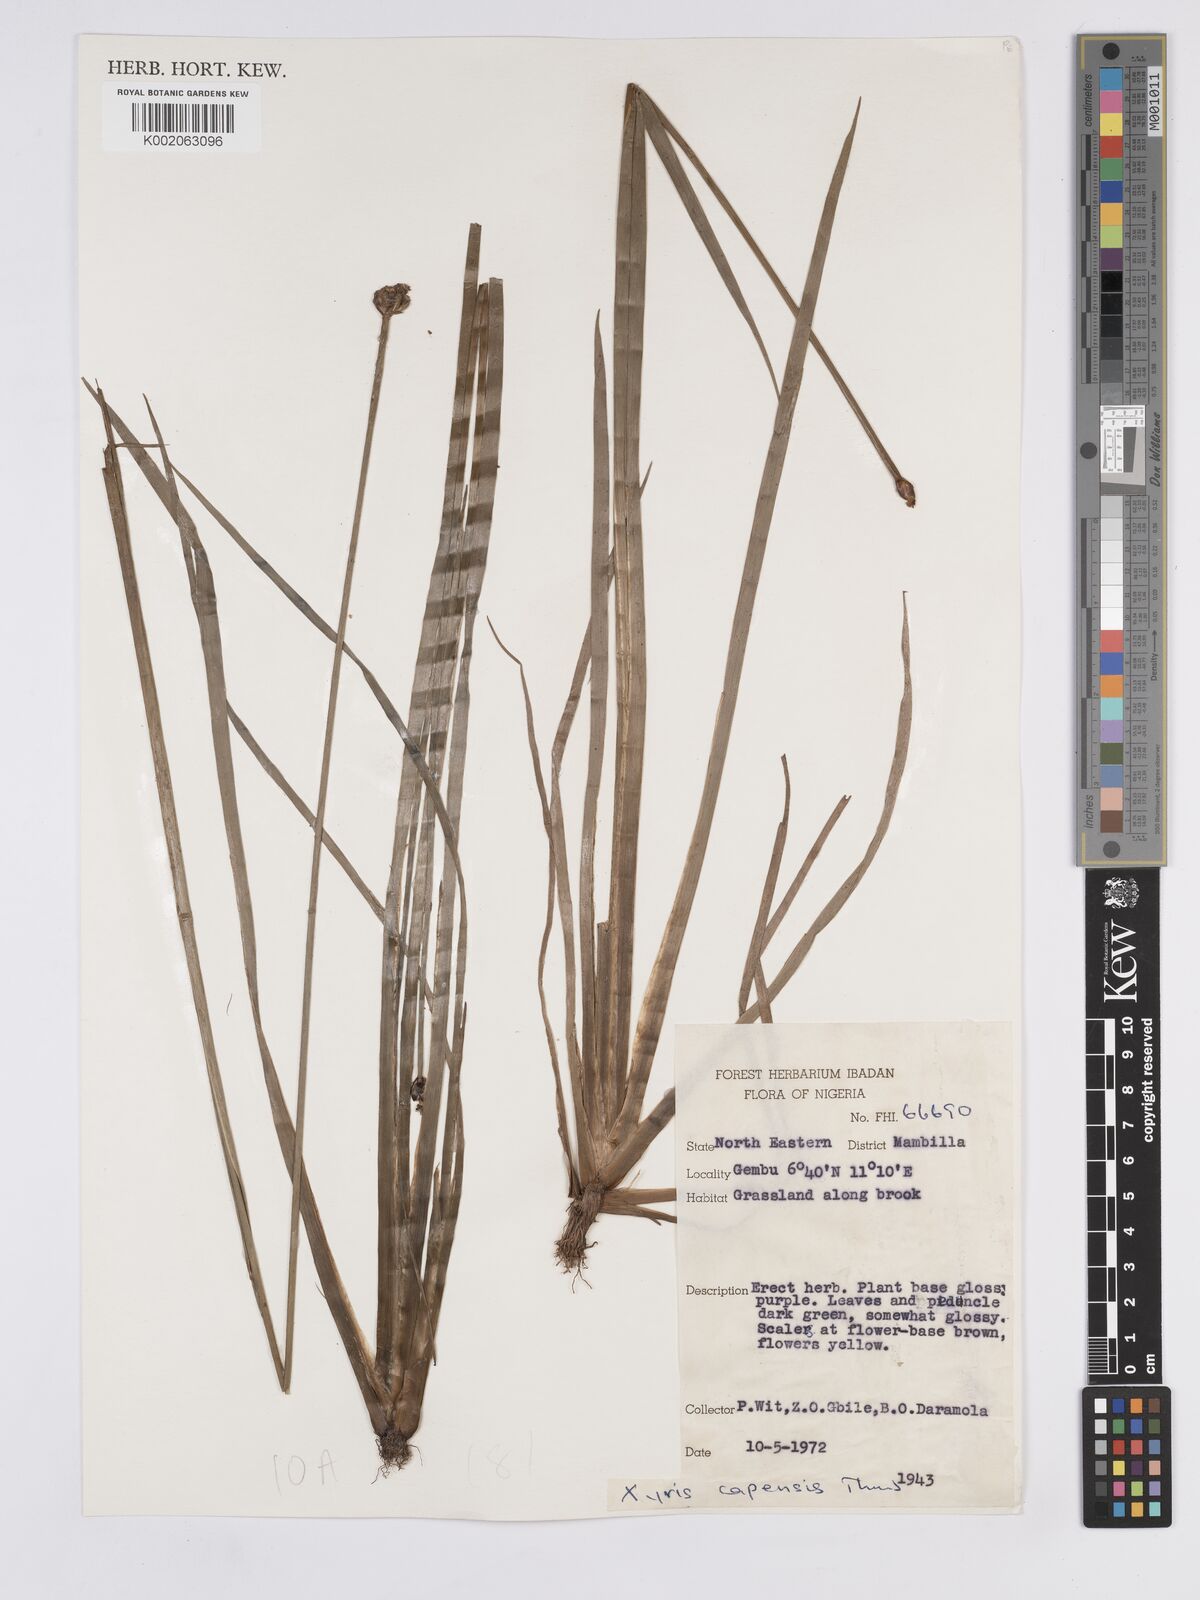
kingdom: Plantae
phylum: Tracheophyta
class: Liliopsida
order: Poales
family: Xyridaceae
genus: Xyris
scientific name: Xyris capensis
